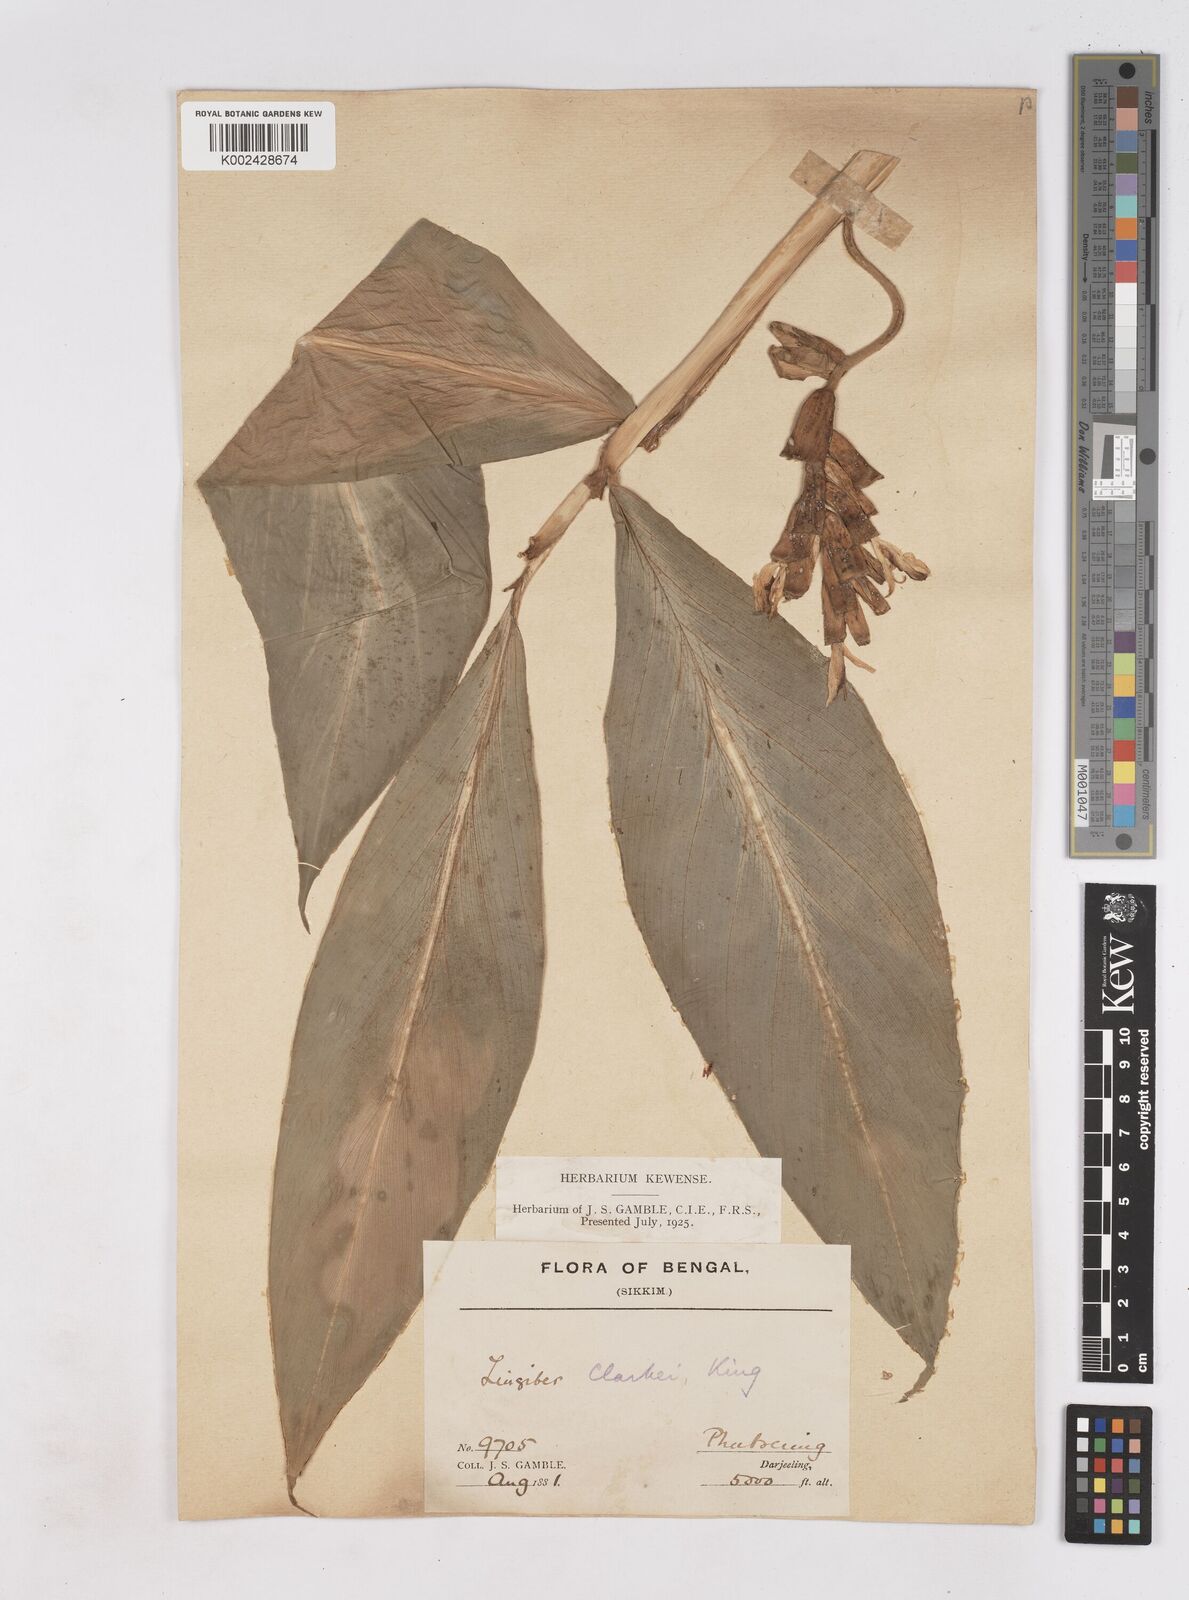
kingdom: Plantae
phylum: Tracheophyta
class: Liliopsida
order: Zingiberales
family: Zingiberaceae
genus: Zingiber
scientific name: Zingiber clarkei
